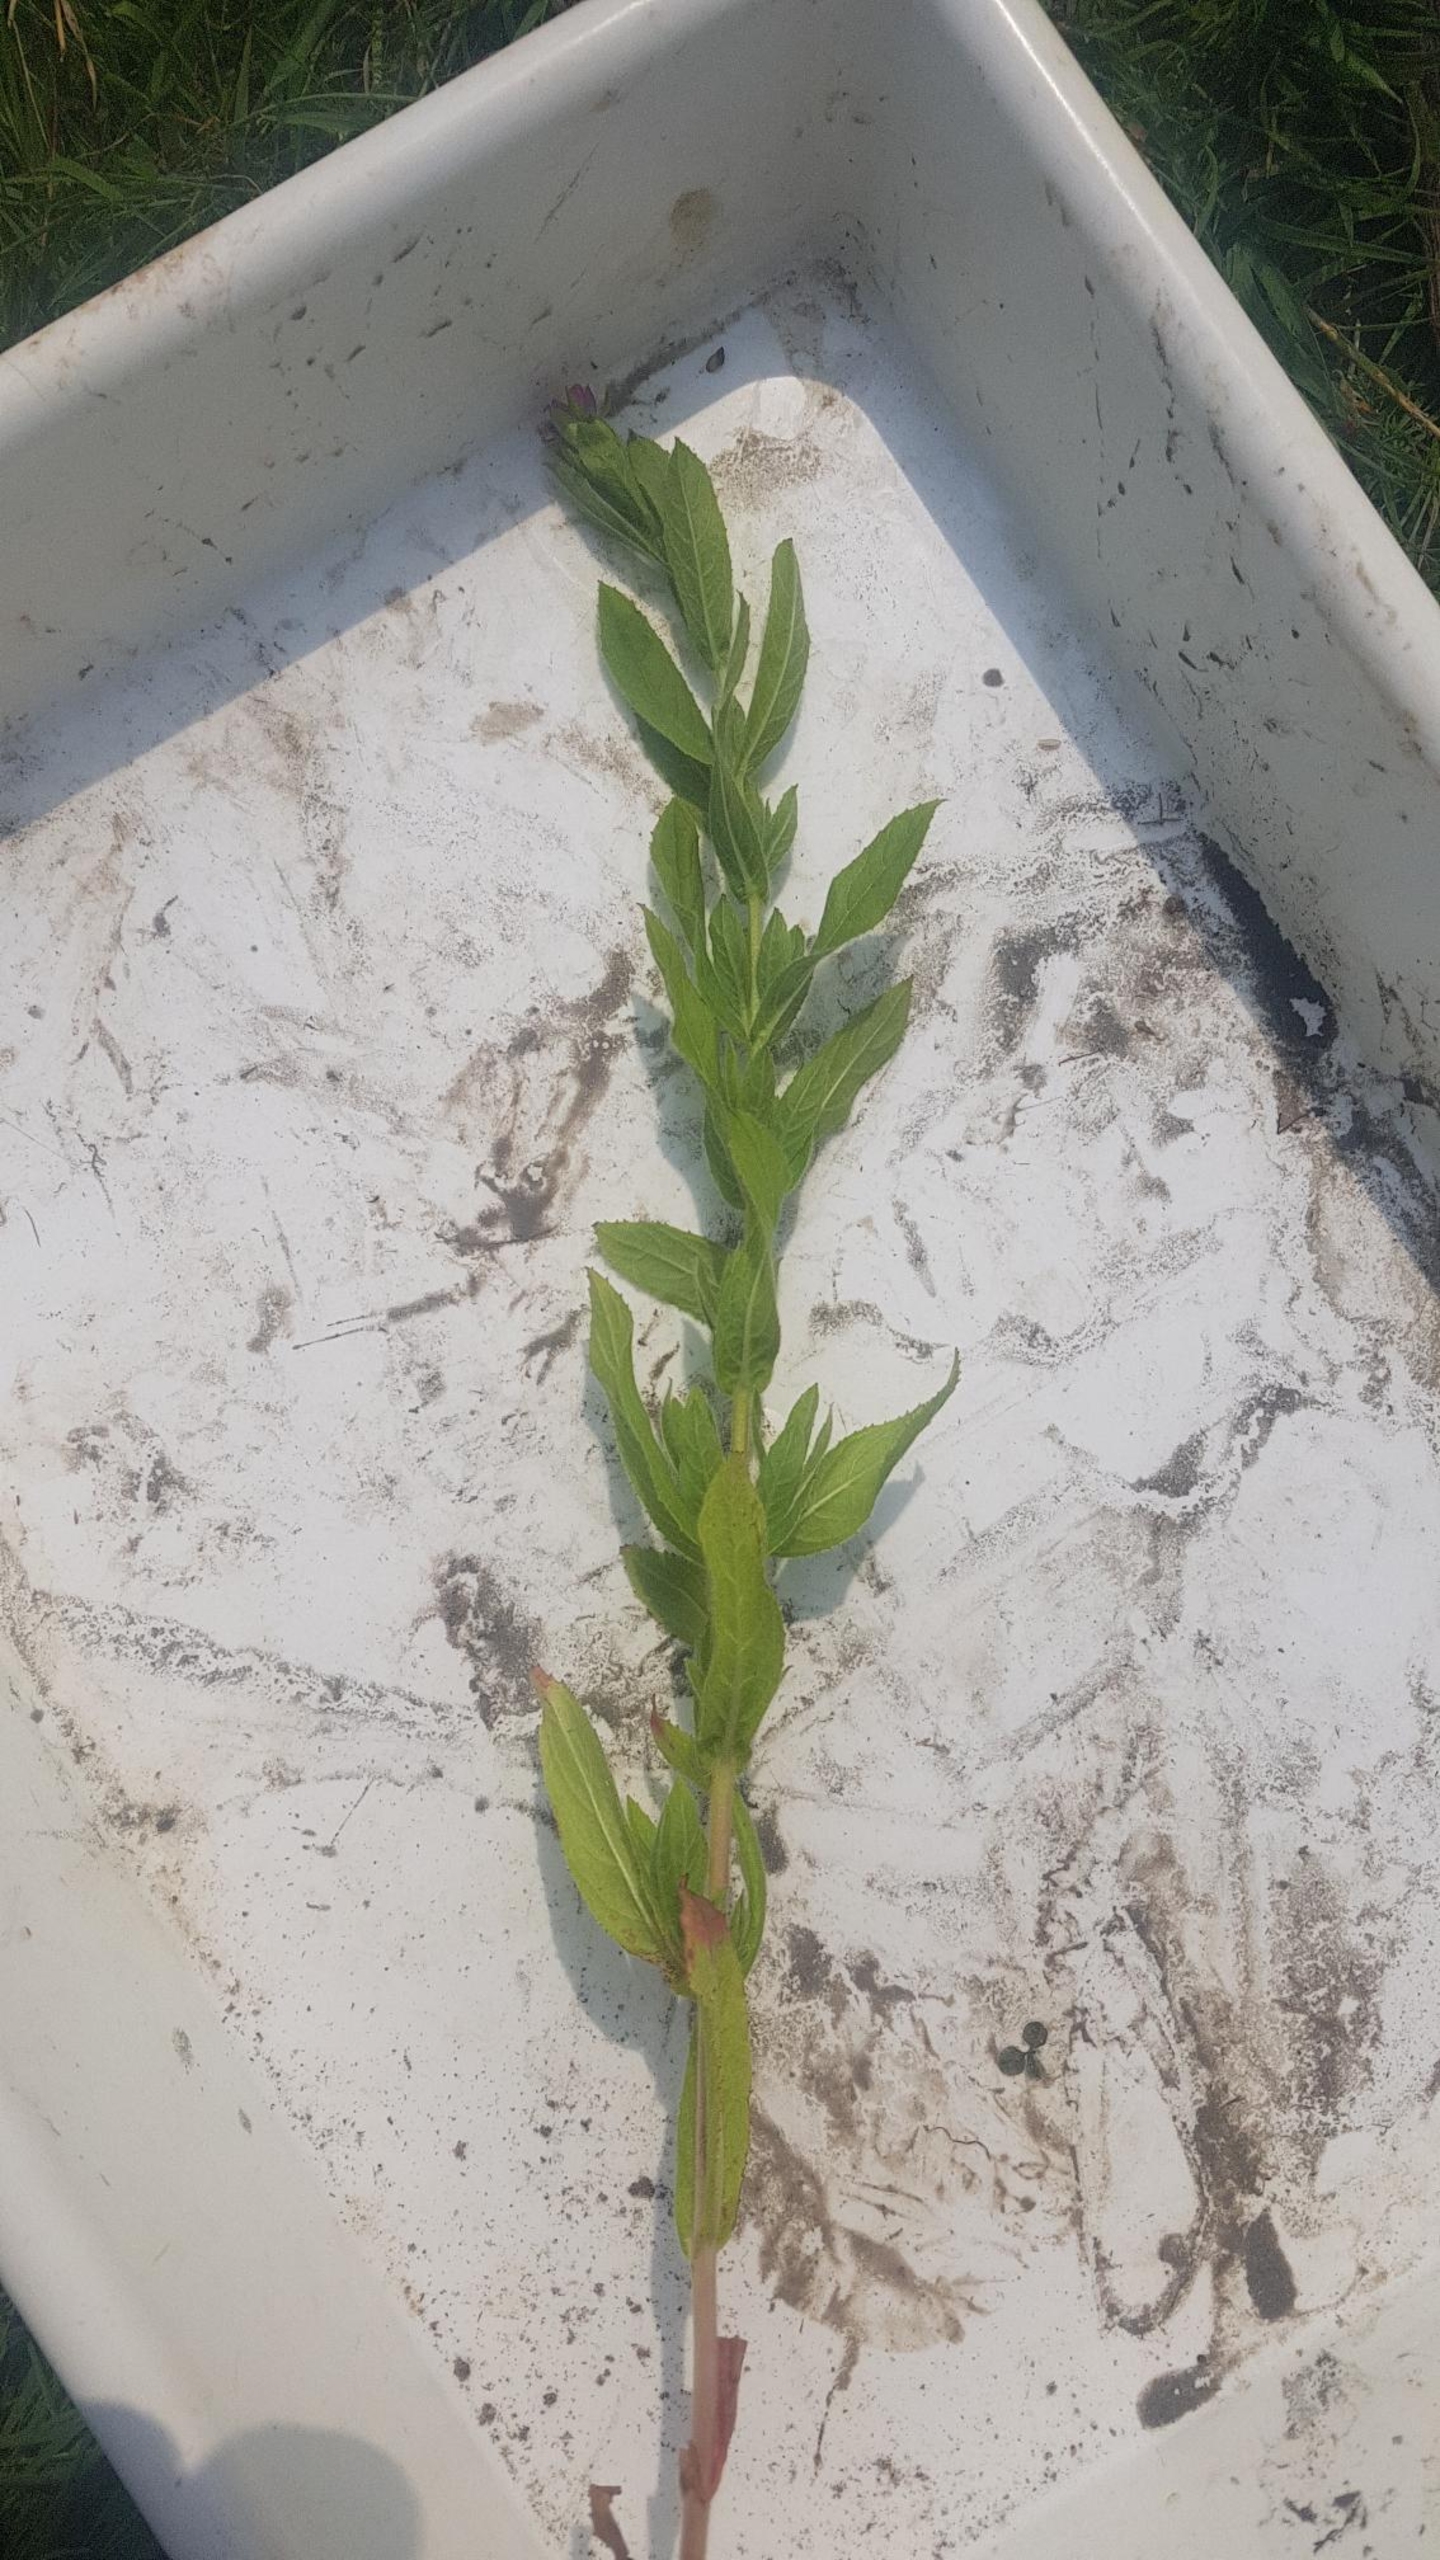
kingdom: Plantae
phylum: Tracheophyta
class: Magnoliopsida
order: Myrtales
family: Onagraceae
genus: Epilobium
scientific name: Epilobium hirsutum
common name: Lådden dueurt
